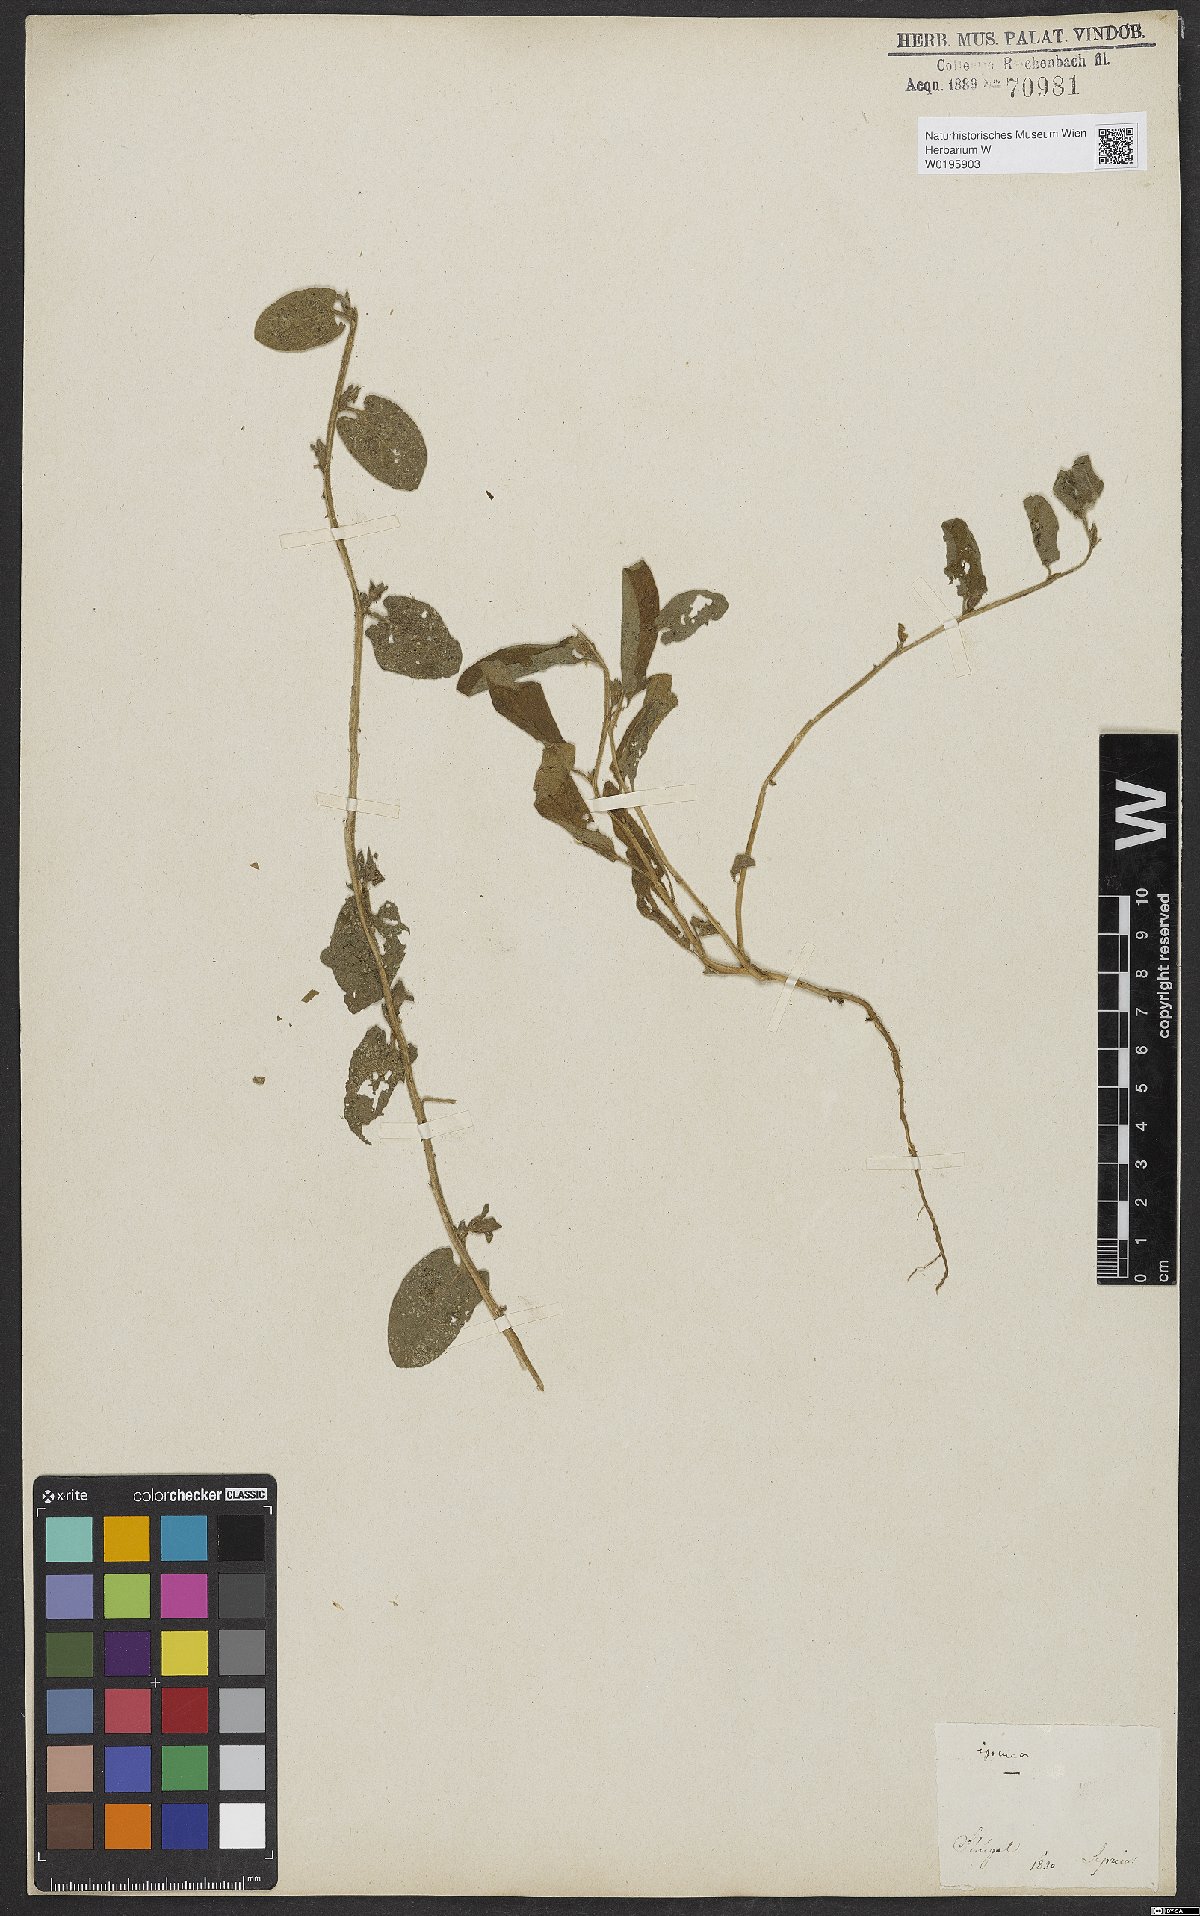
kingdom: Plantae
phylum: Tracheophyta
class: Magnoliopsida
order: Solanales
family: Convolvulaceae
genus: Ipomoea
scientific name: Ipomoea vagans
